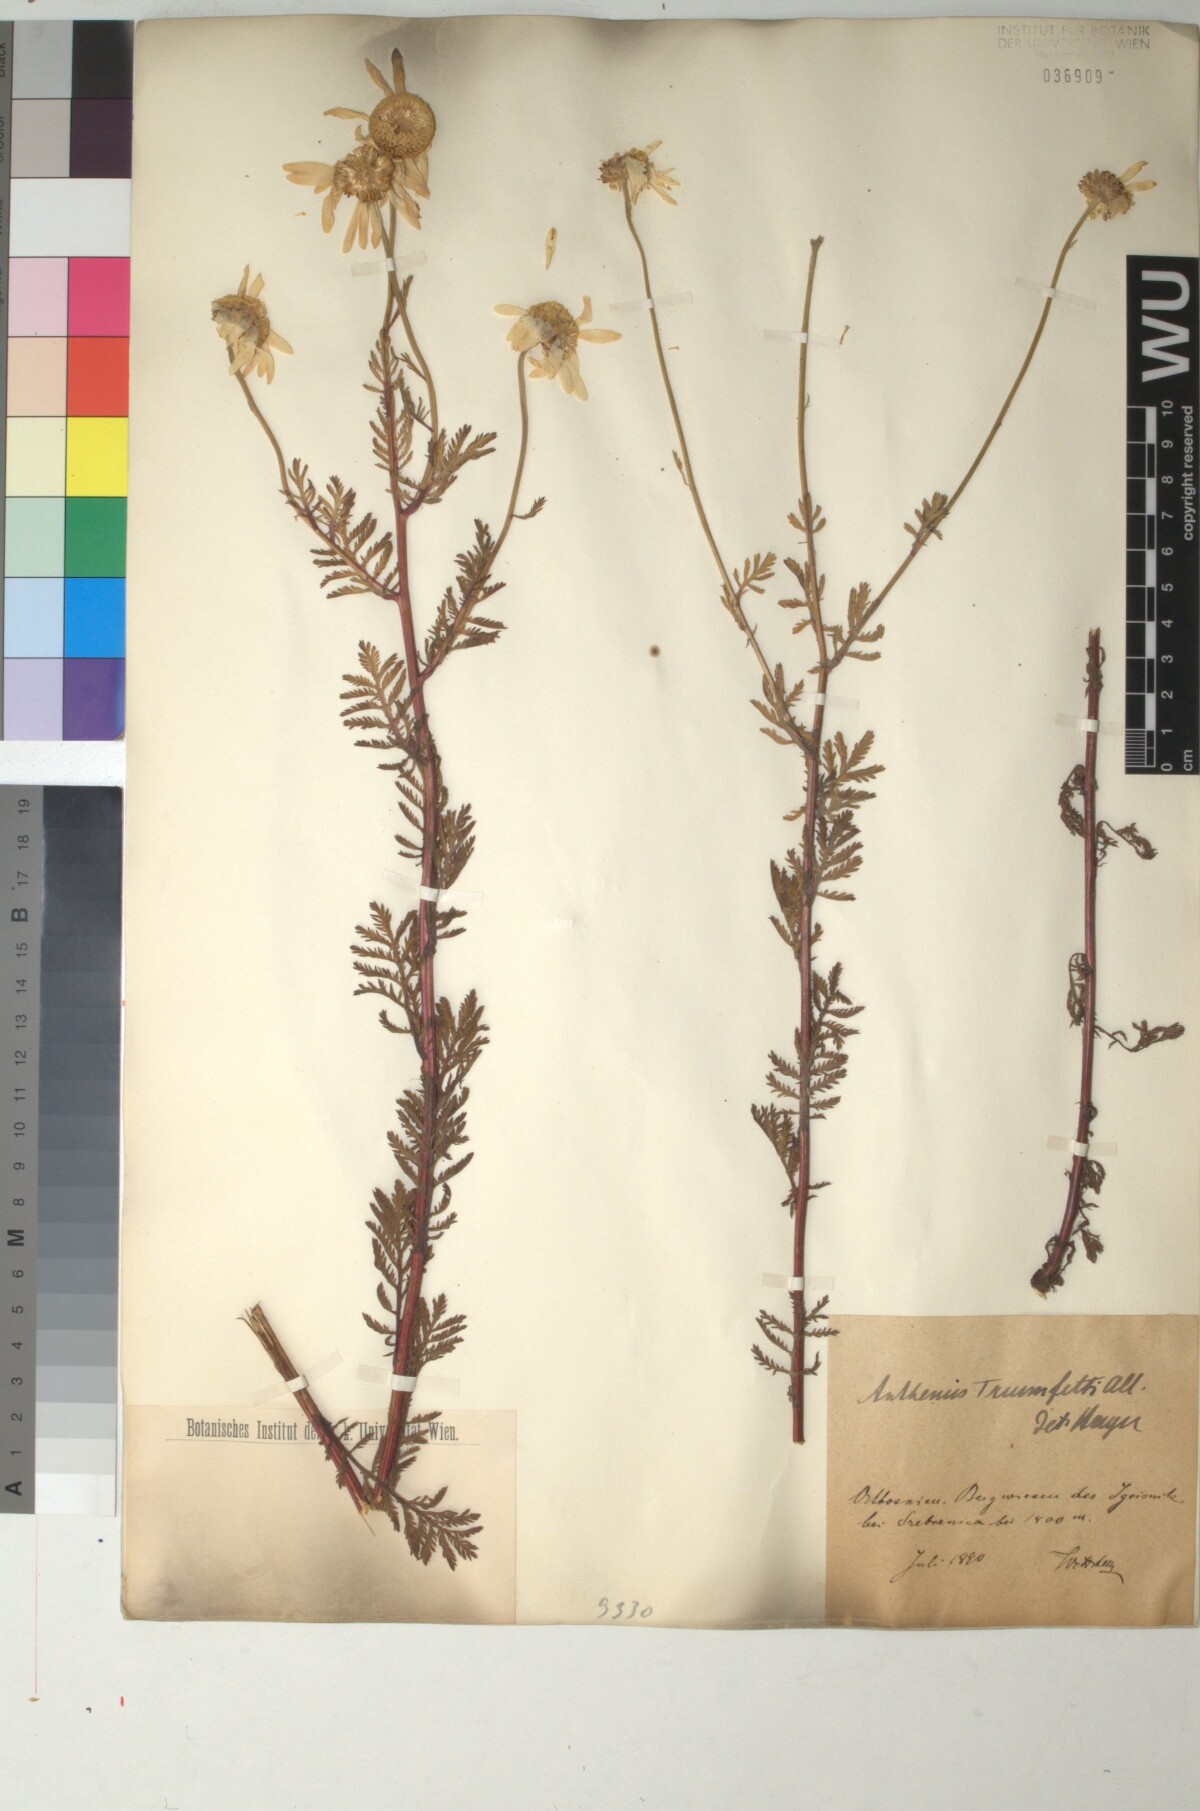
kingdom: Plantae
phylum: Tracheophyta
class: Magnoliopsida
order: Asterales
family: Asteraceae
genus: Cota
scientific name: Cota triumfetti
